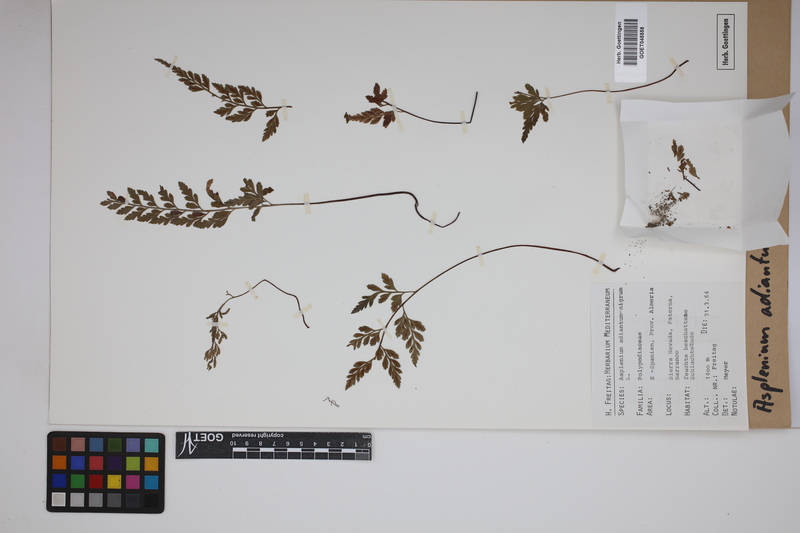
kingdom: Plantae
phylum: Tracheophyta
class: Polypodiopsida
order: Polypodiales
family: Aspleniaceae
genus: Asplenium
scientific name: Asplenium adiantum-nigrum
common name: Black spleenwort
